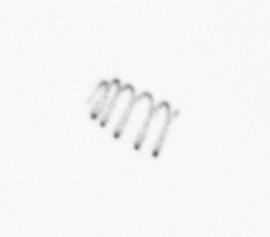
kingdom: Chromista
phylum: Ochrophyta
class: Bacillariophyceae
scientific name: Bacillariophyceae
